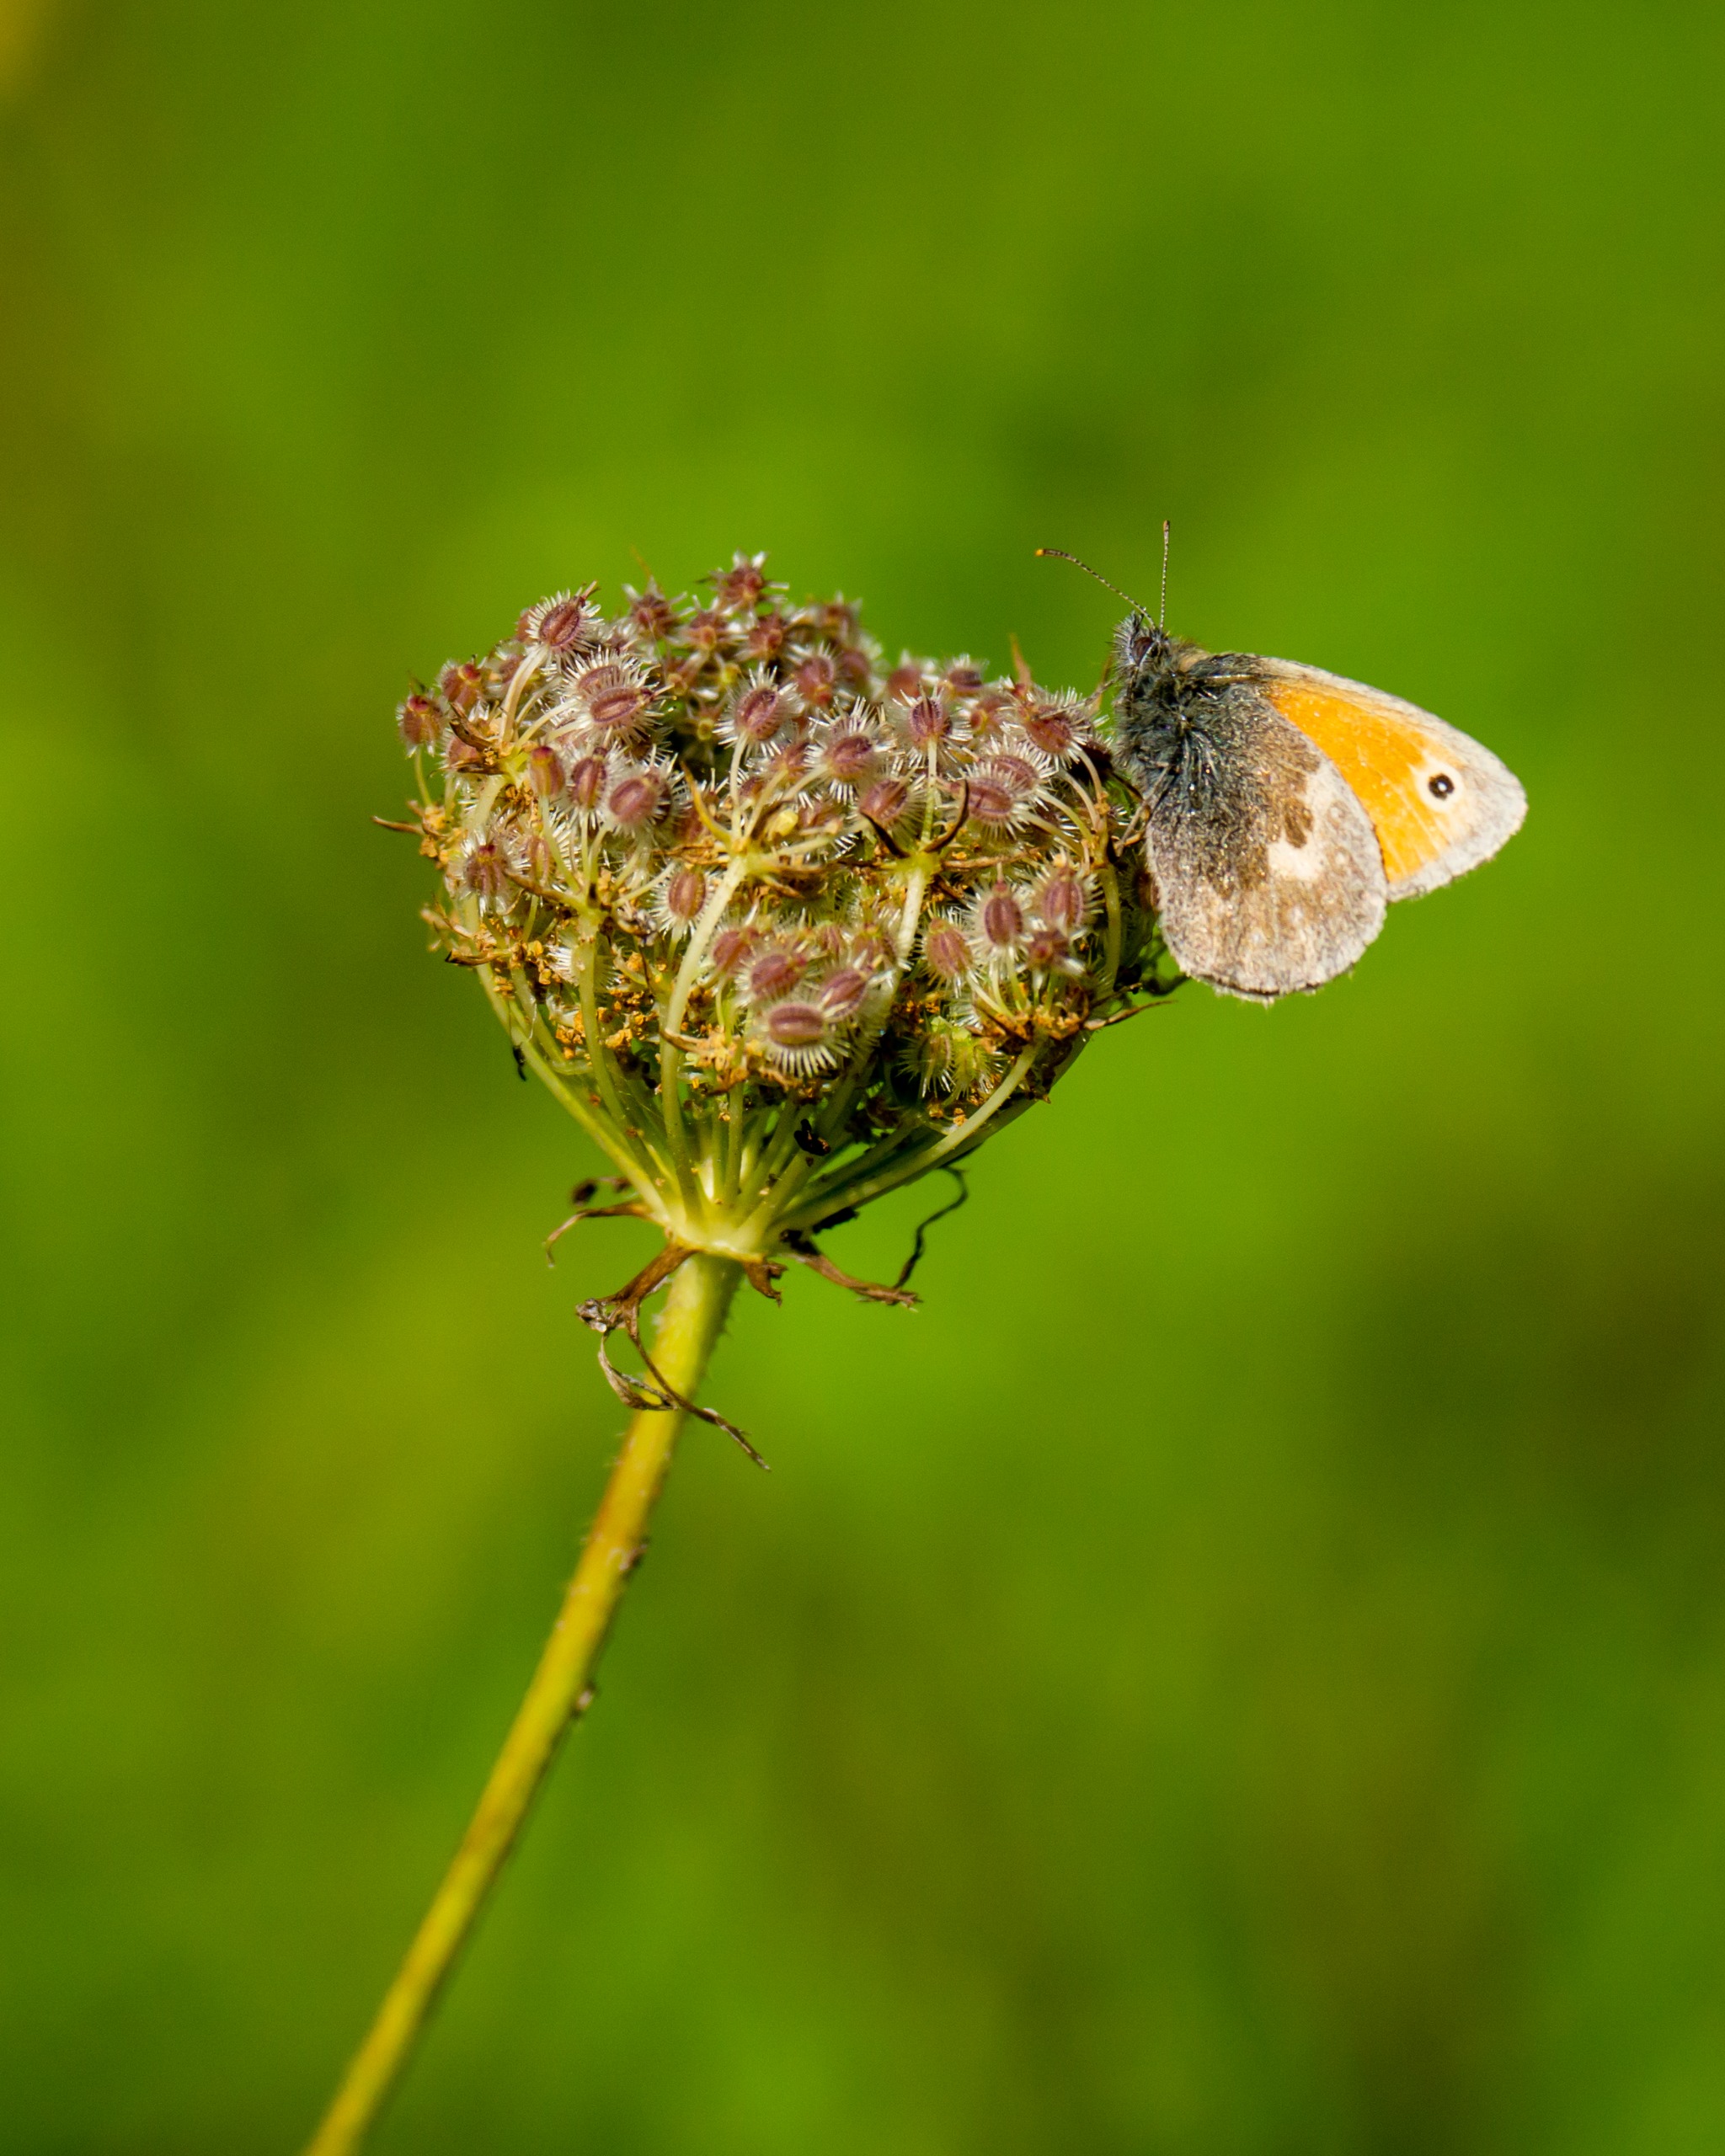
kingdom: Animalia
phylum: Arthropoda
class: Insecta
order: Lepidoptera
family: Nymphalidae
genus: Coenonympha
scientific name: Coenonympha pamphilus
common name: Okkergul randøje
